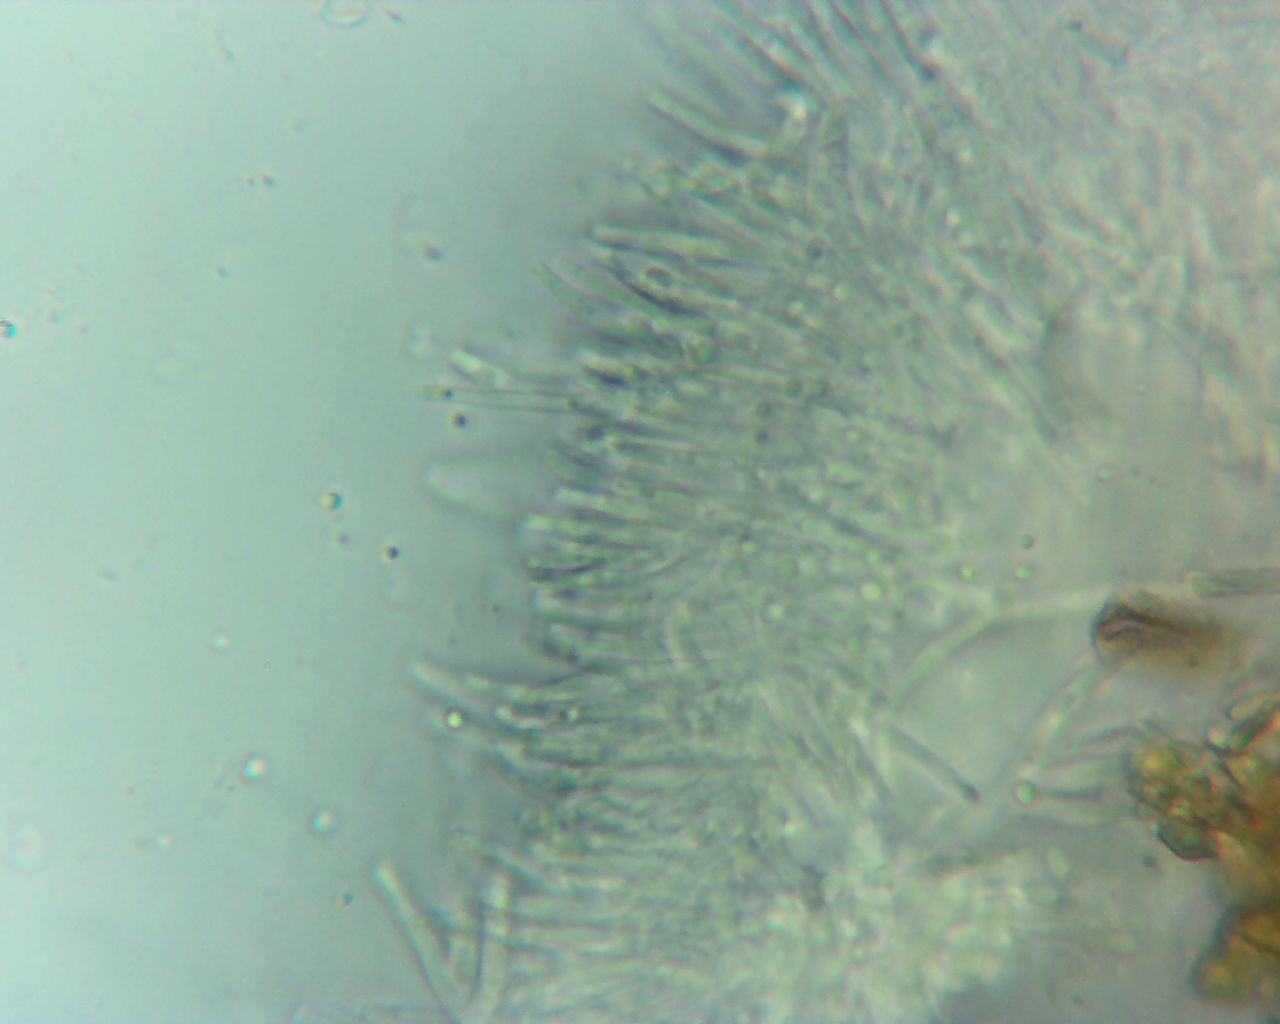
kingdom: Fungi
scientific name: Fungi
